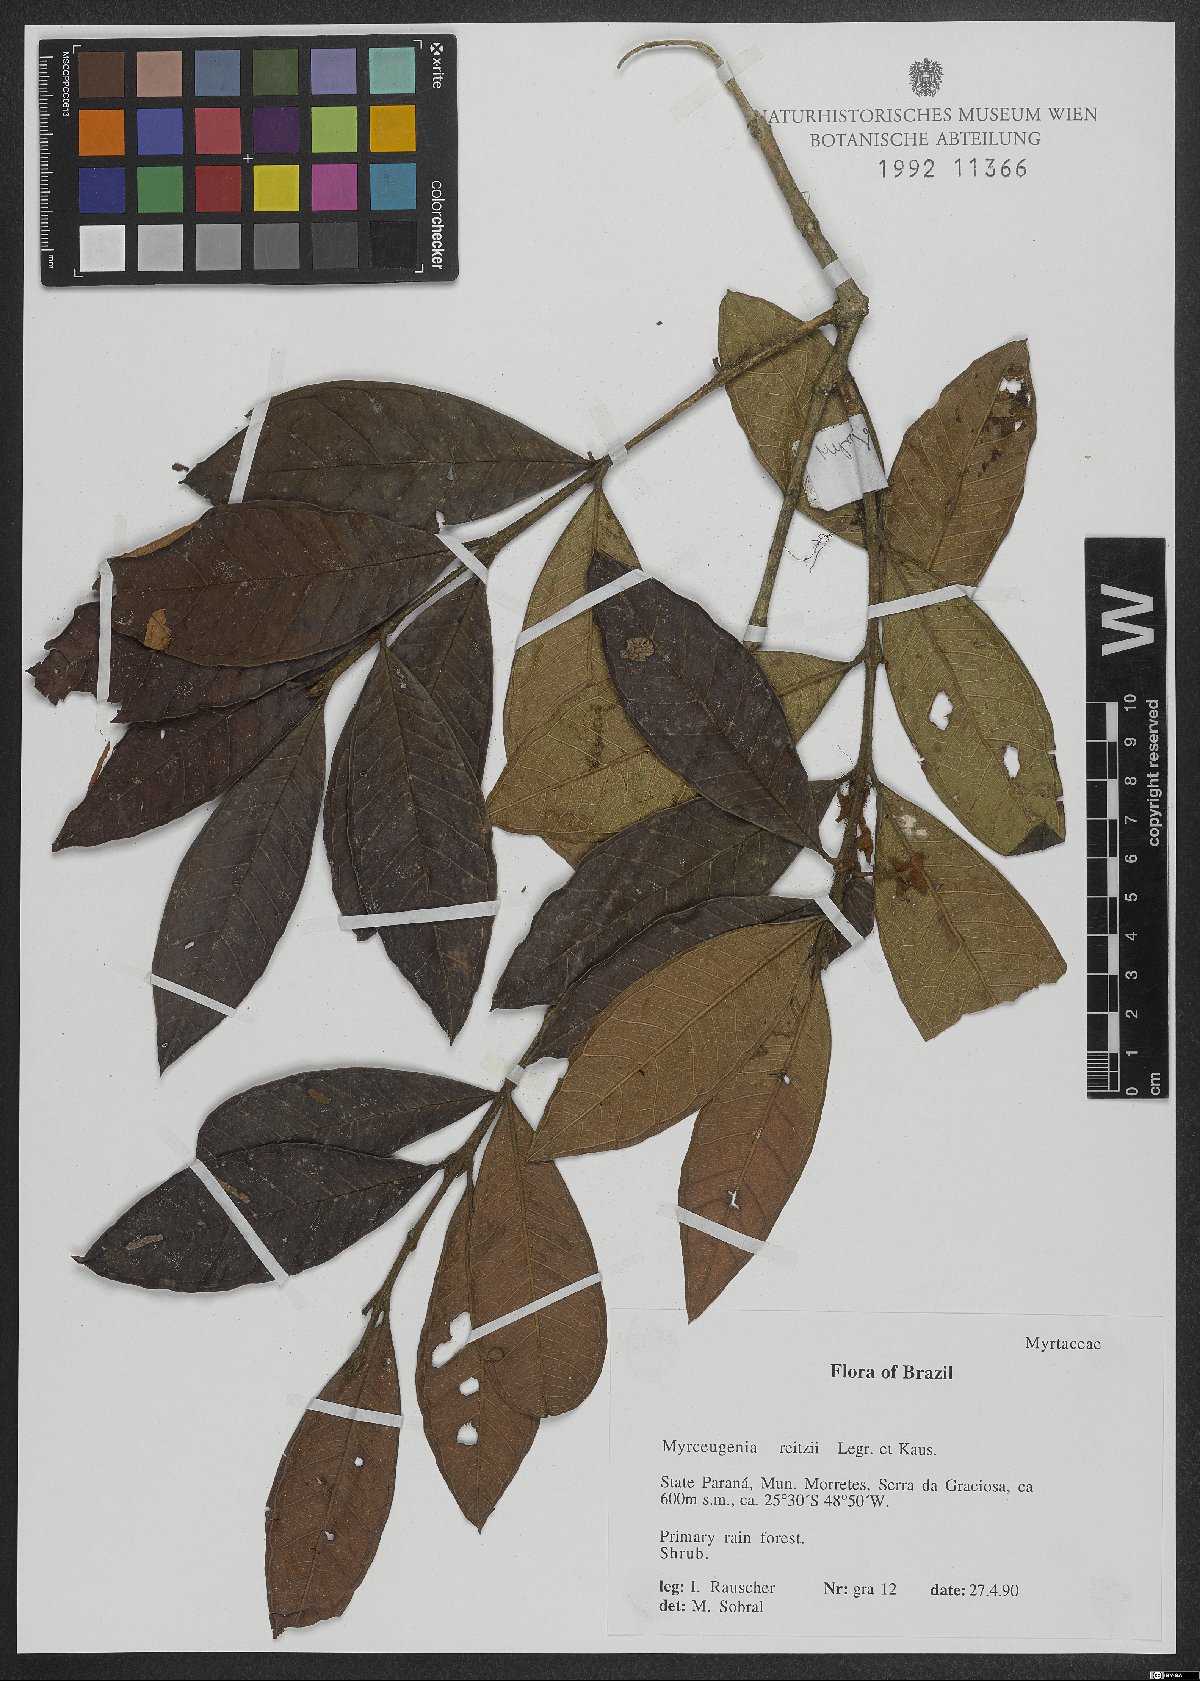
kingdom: Plantae
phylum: Tracheophyta
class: Magnoliopsida
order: Myrtales
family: Myrtaceae
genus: Myrceugenia
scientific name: Myrceugenia reitzii
